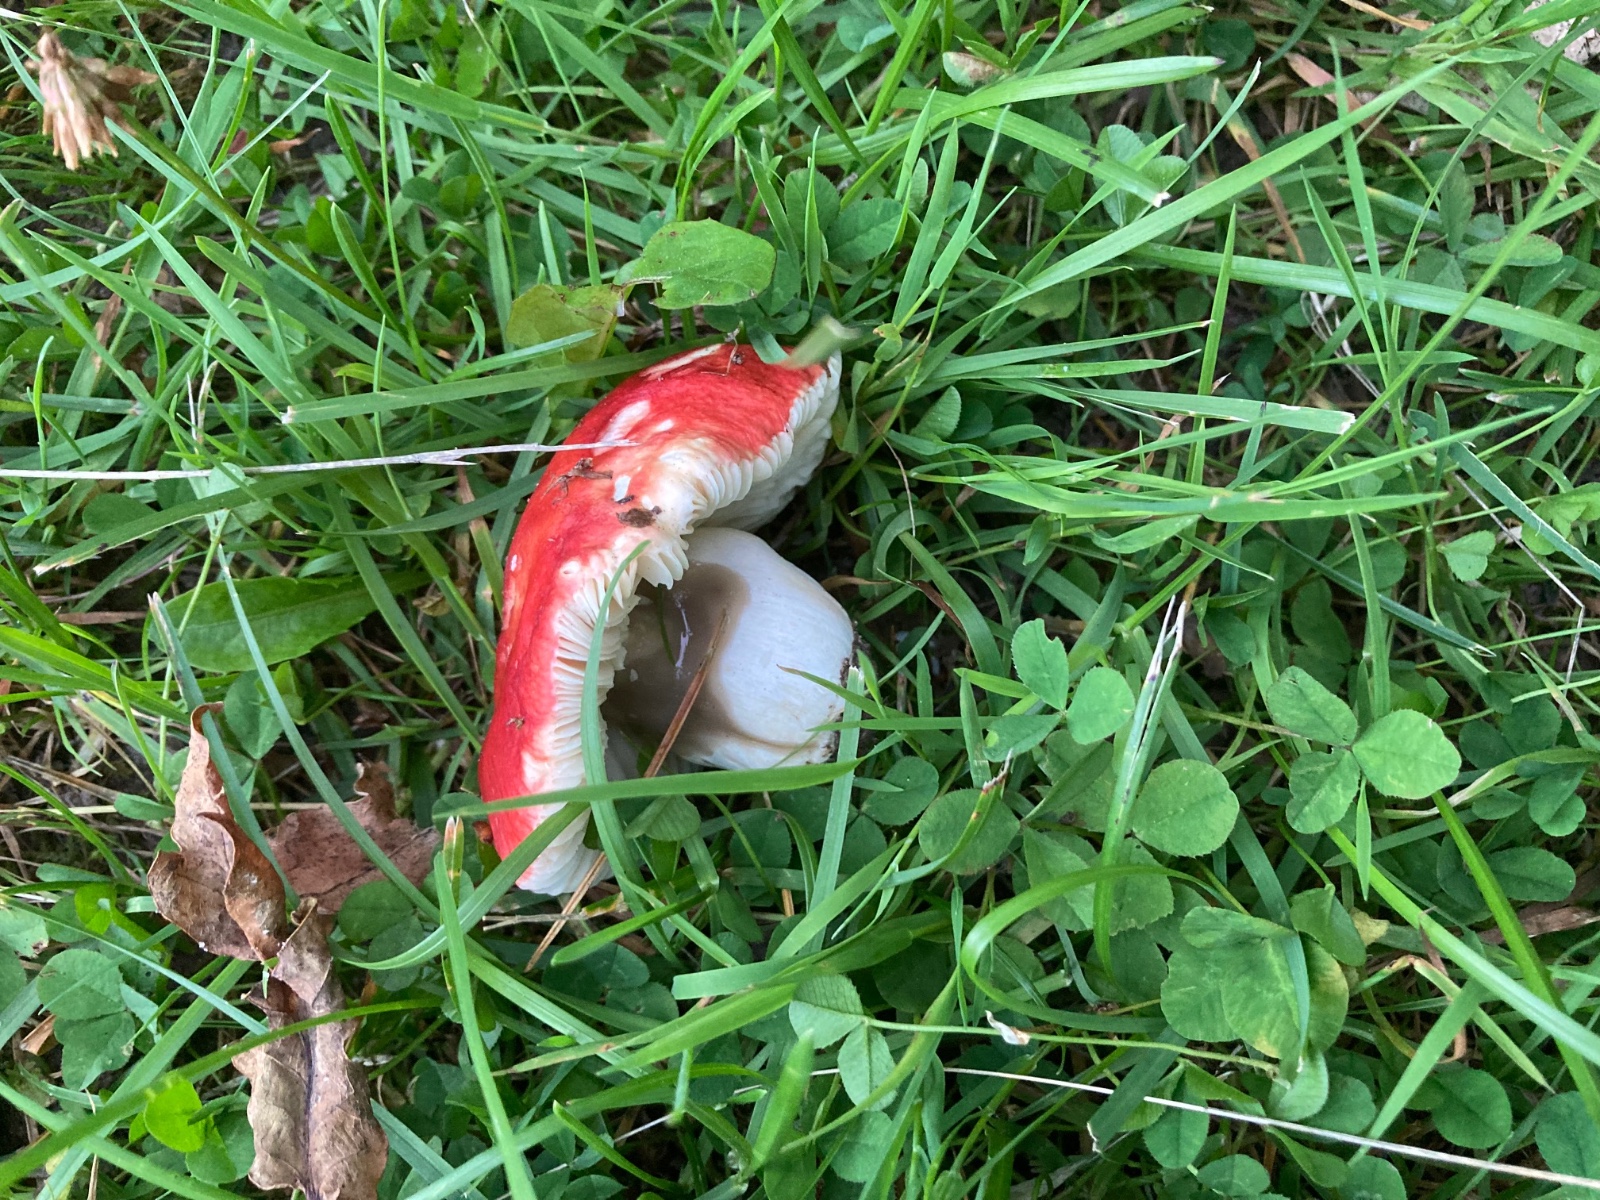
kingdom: Fungi
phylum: Basidiomycota
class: Agaricomycetes
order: Russulales
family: Russulaceae
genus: Russula
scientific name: Russula pseudointegra
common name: cinnoberrød skørhat
